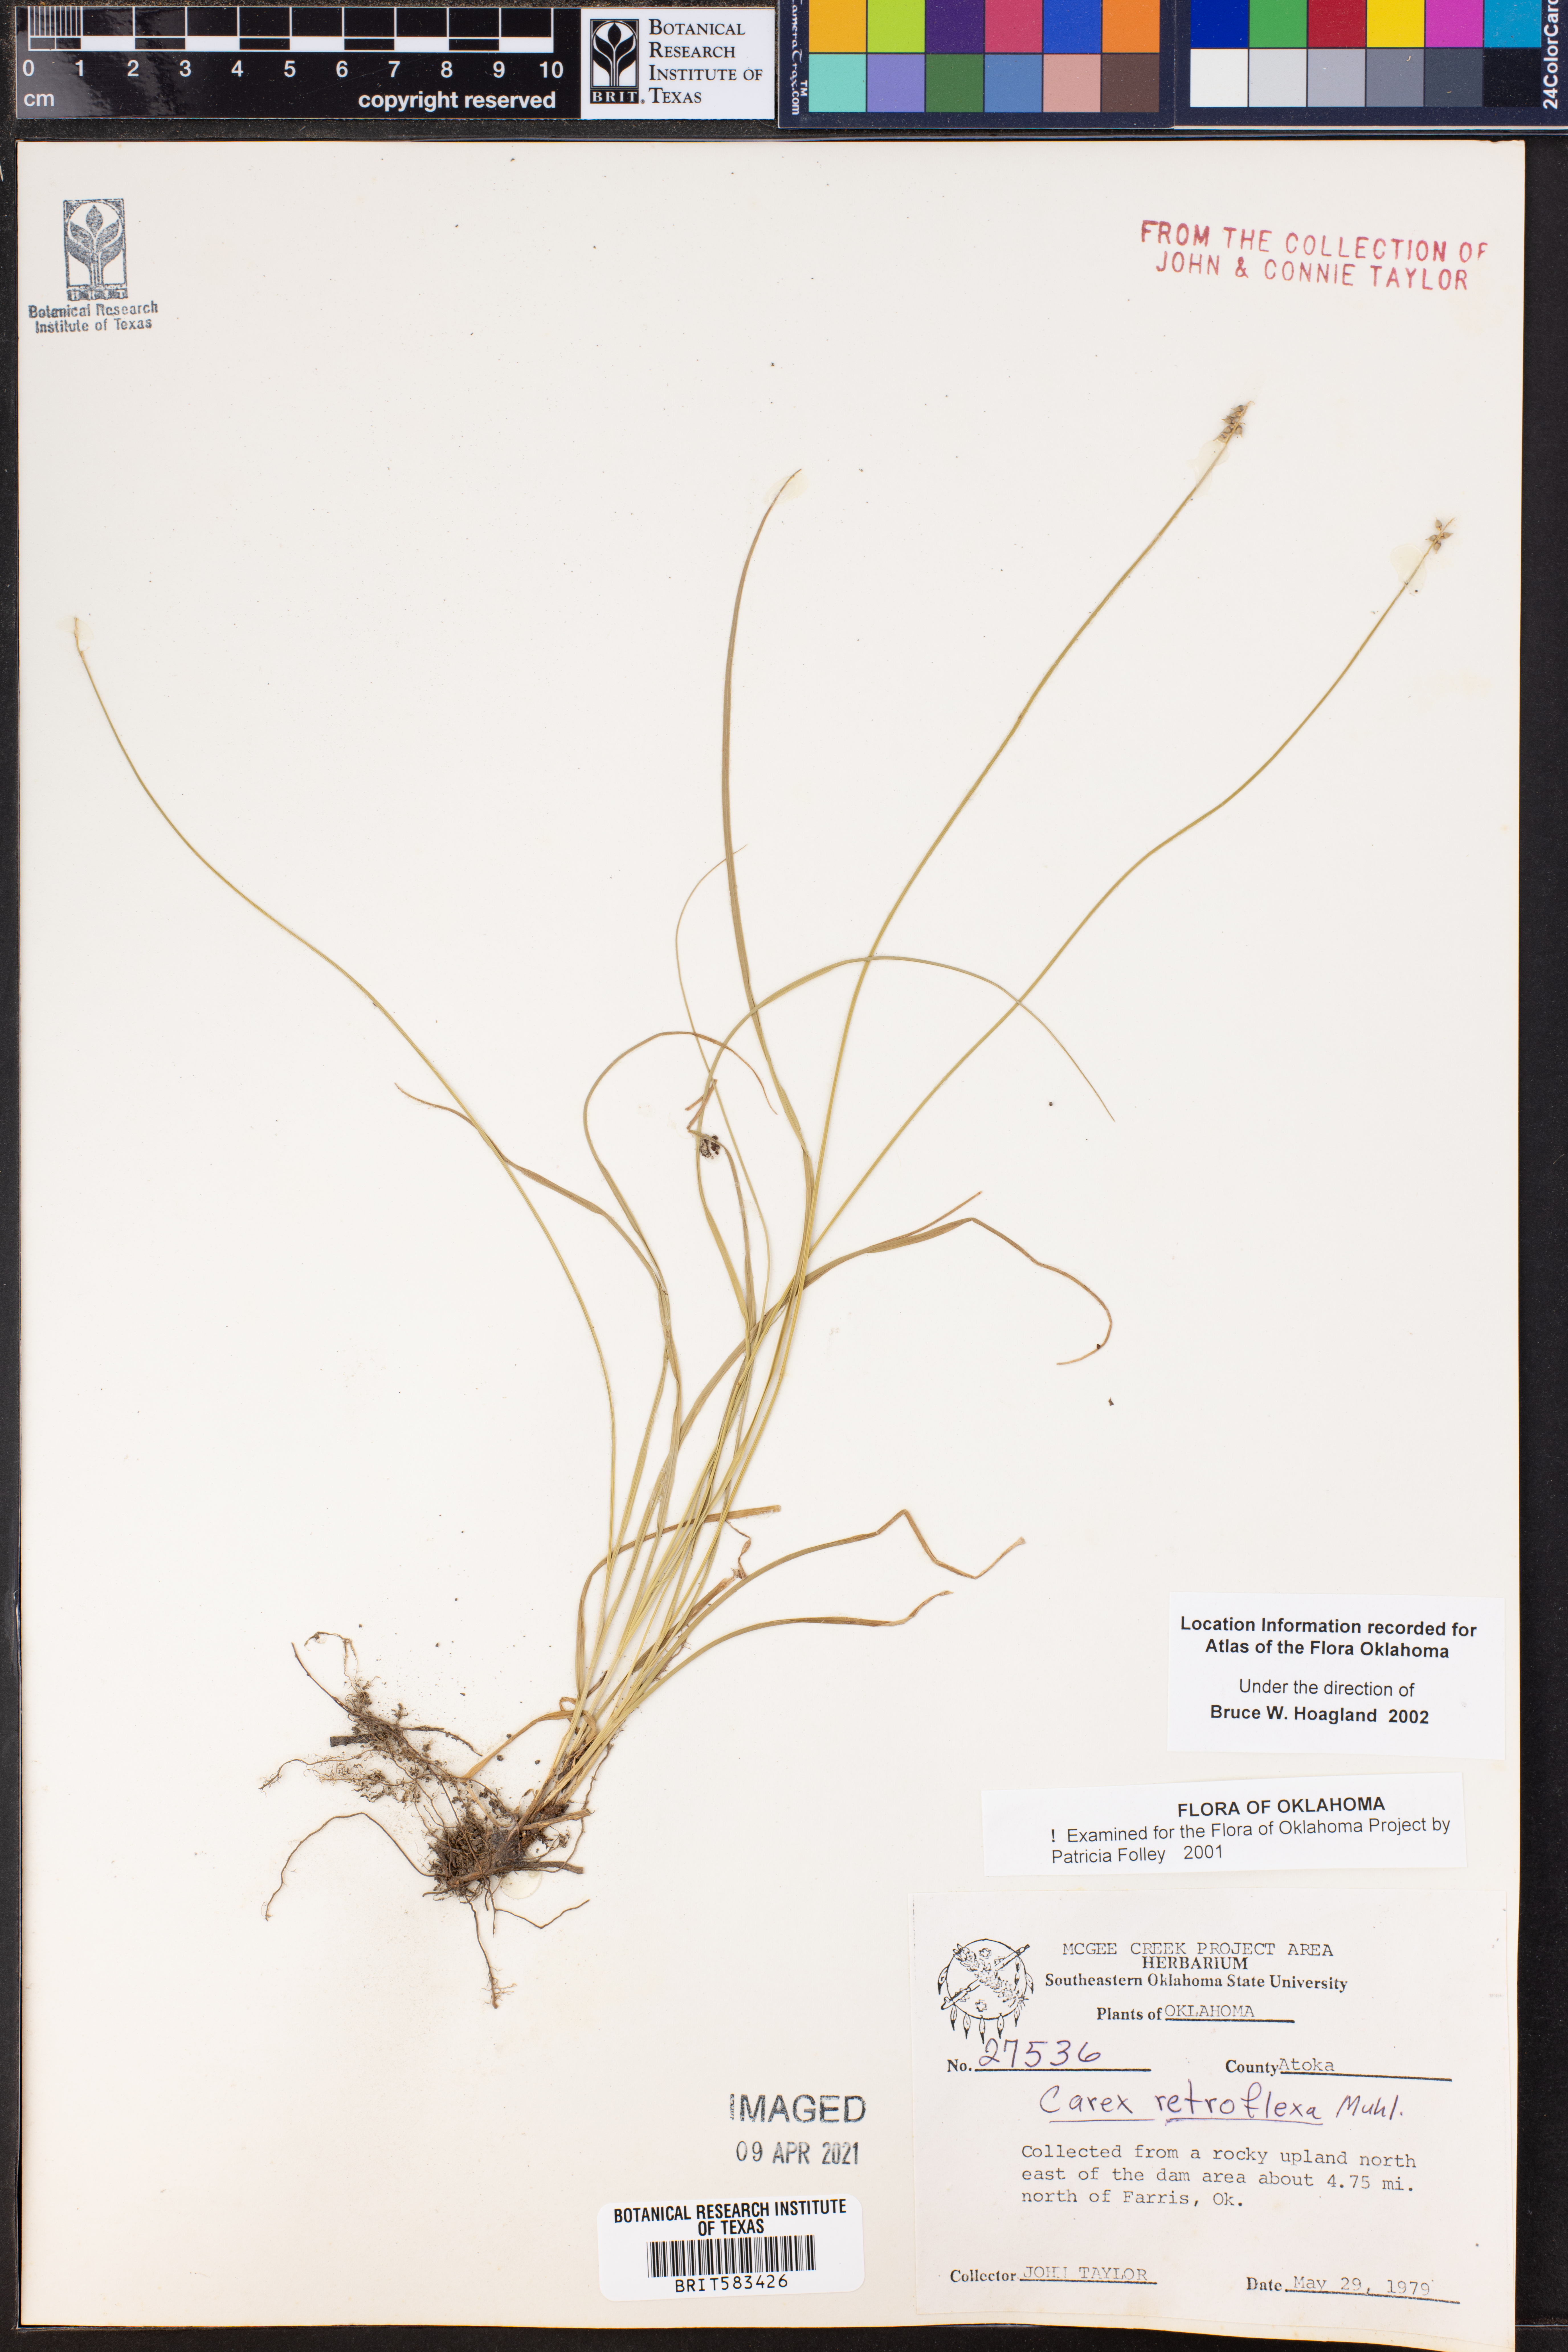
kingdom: Plantae
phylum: Tracheophyta
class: Liliopsida
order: Poales
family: Cyperaceae
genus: Carex
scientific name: Carex retroflexa
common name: Reflexed sedge
